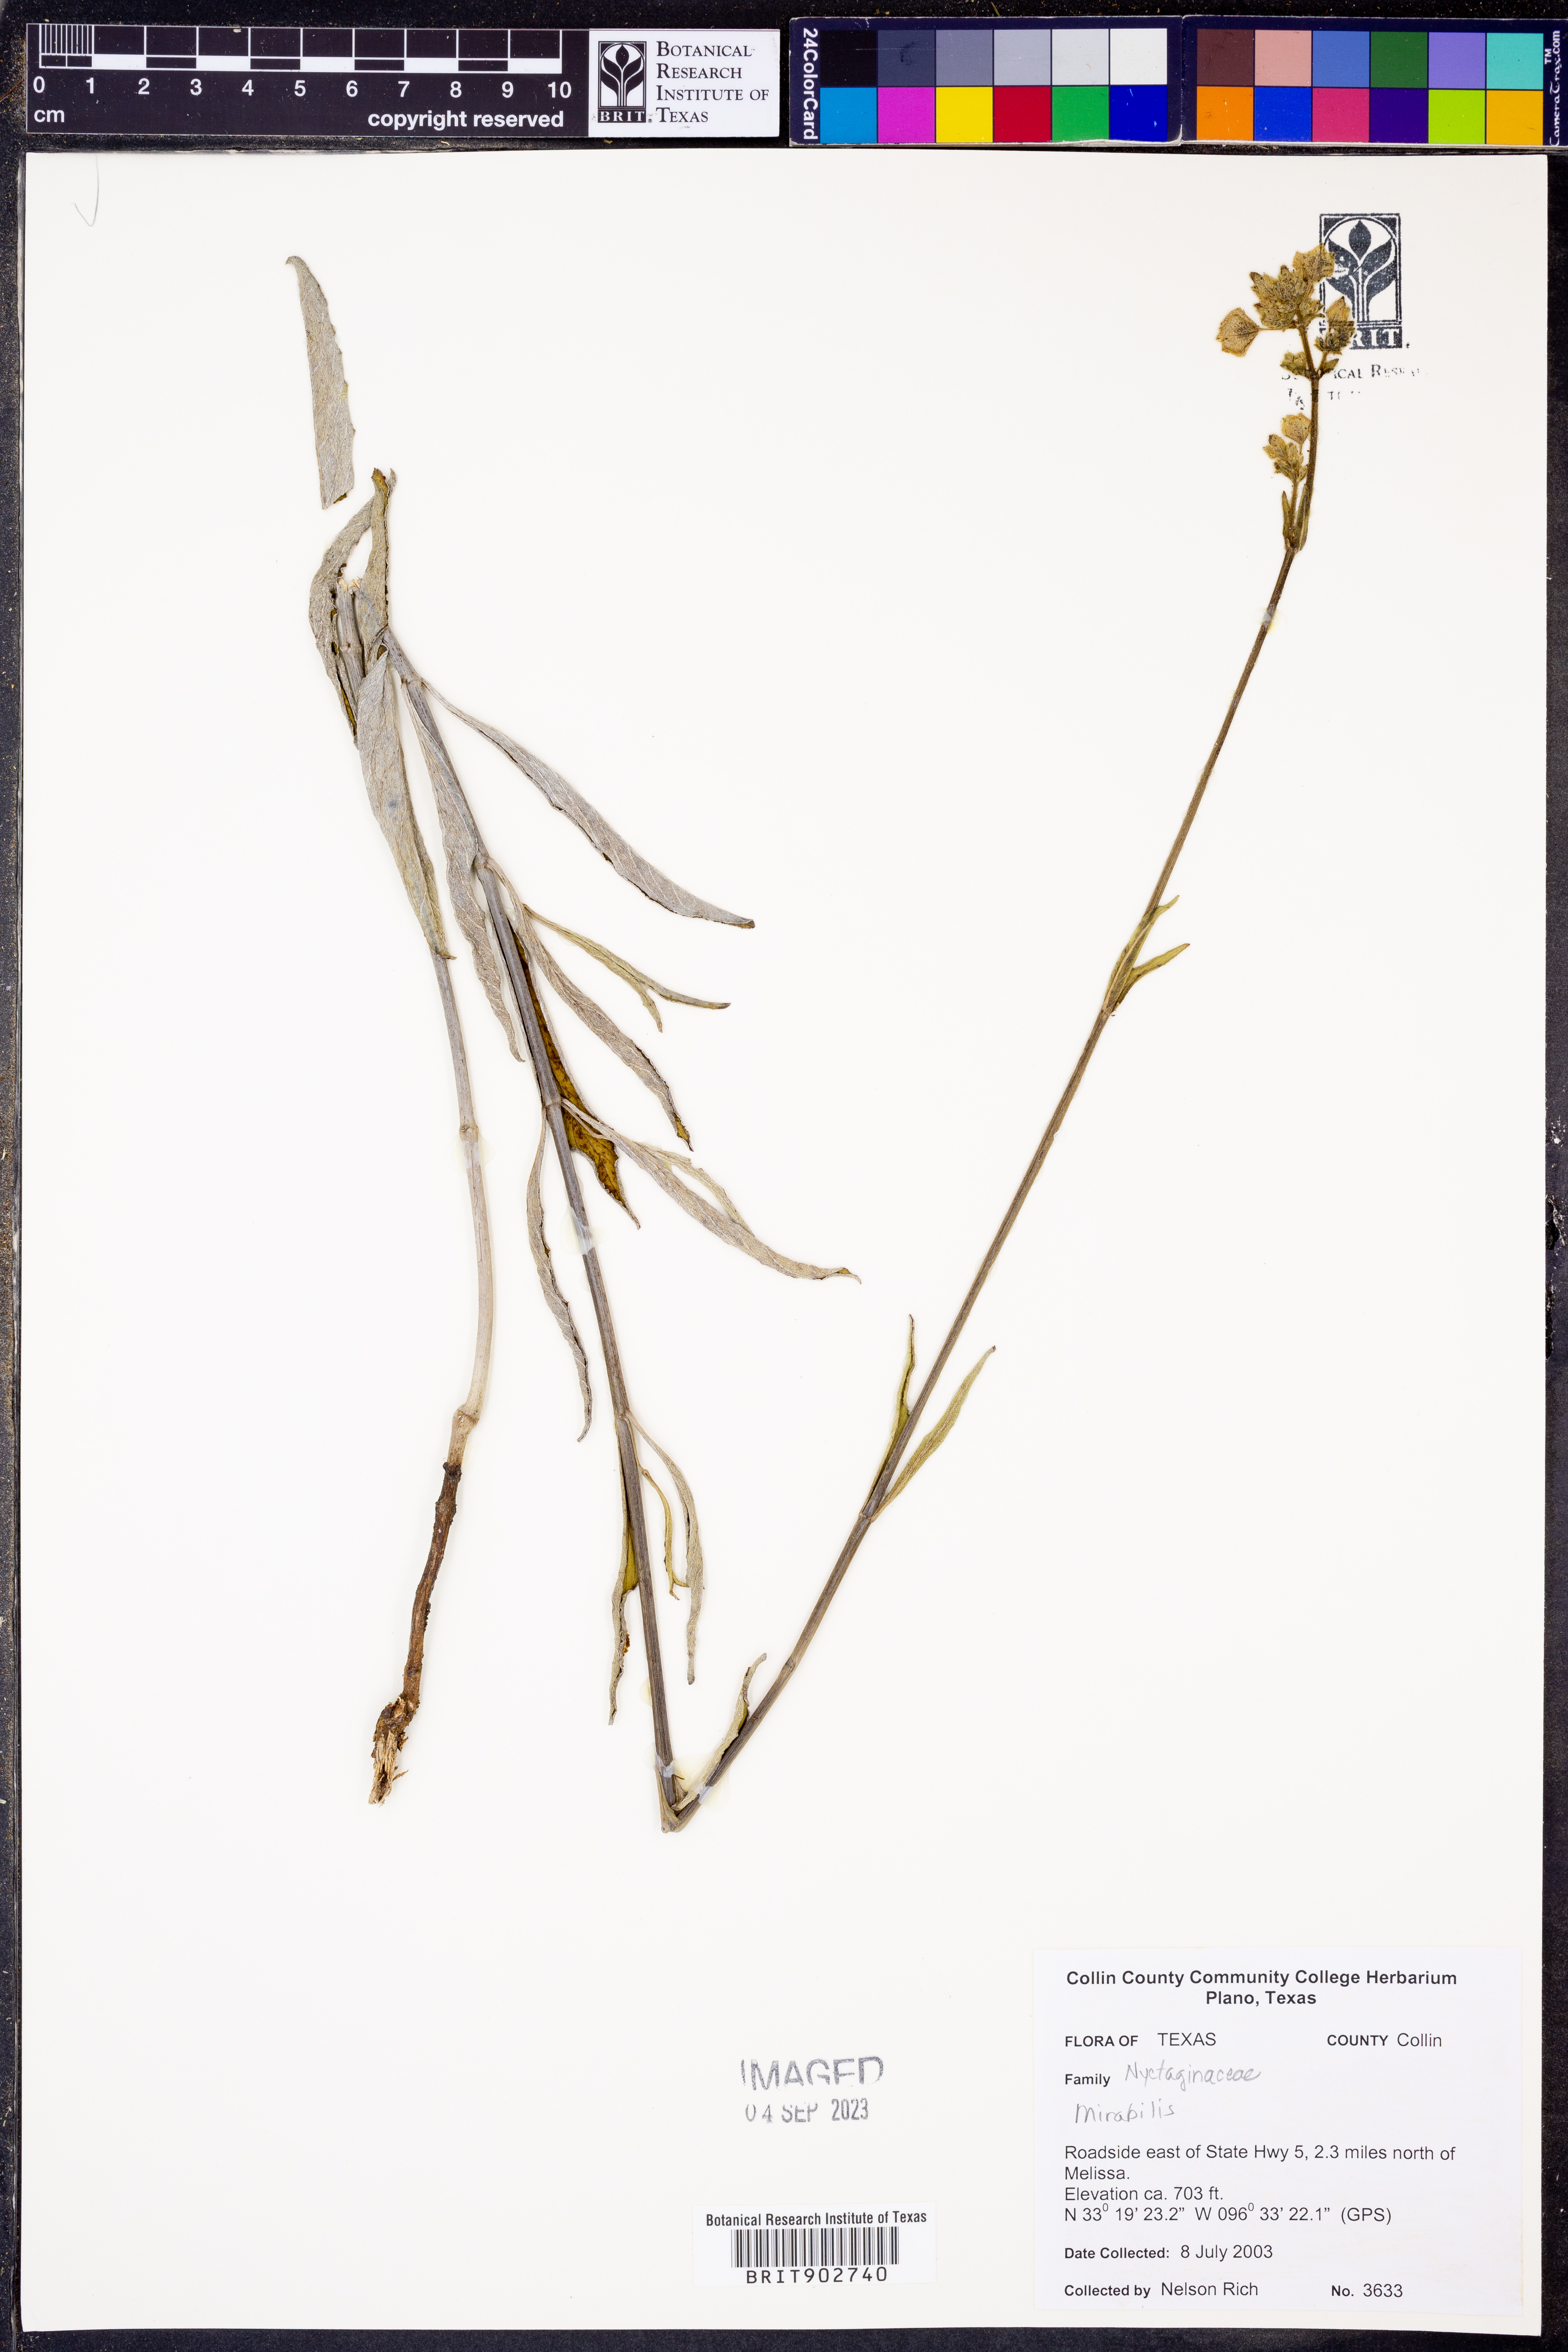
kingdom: Plantae
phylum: Tracheophyta
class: Magnoliopsida
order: Caryophyllales
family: Nyctaginaceae
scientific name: Nyctaginaceae
